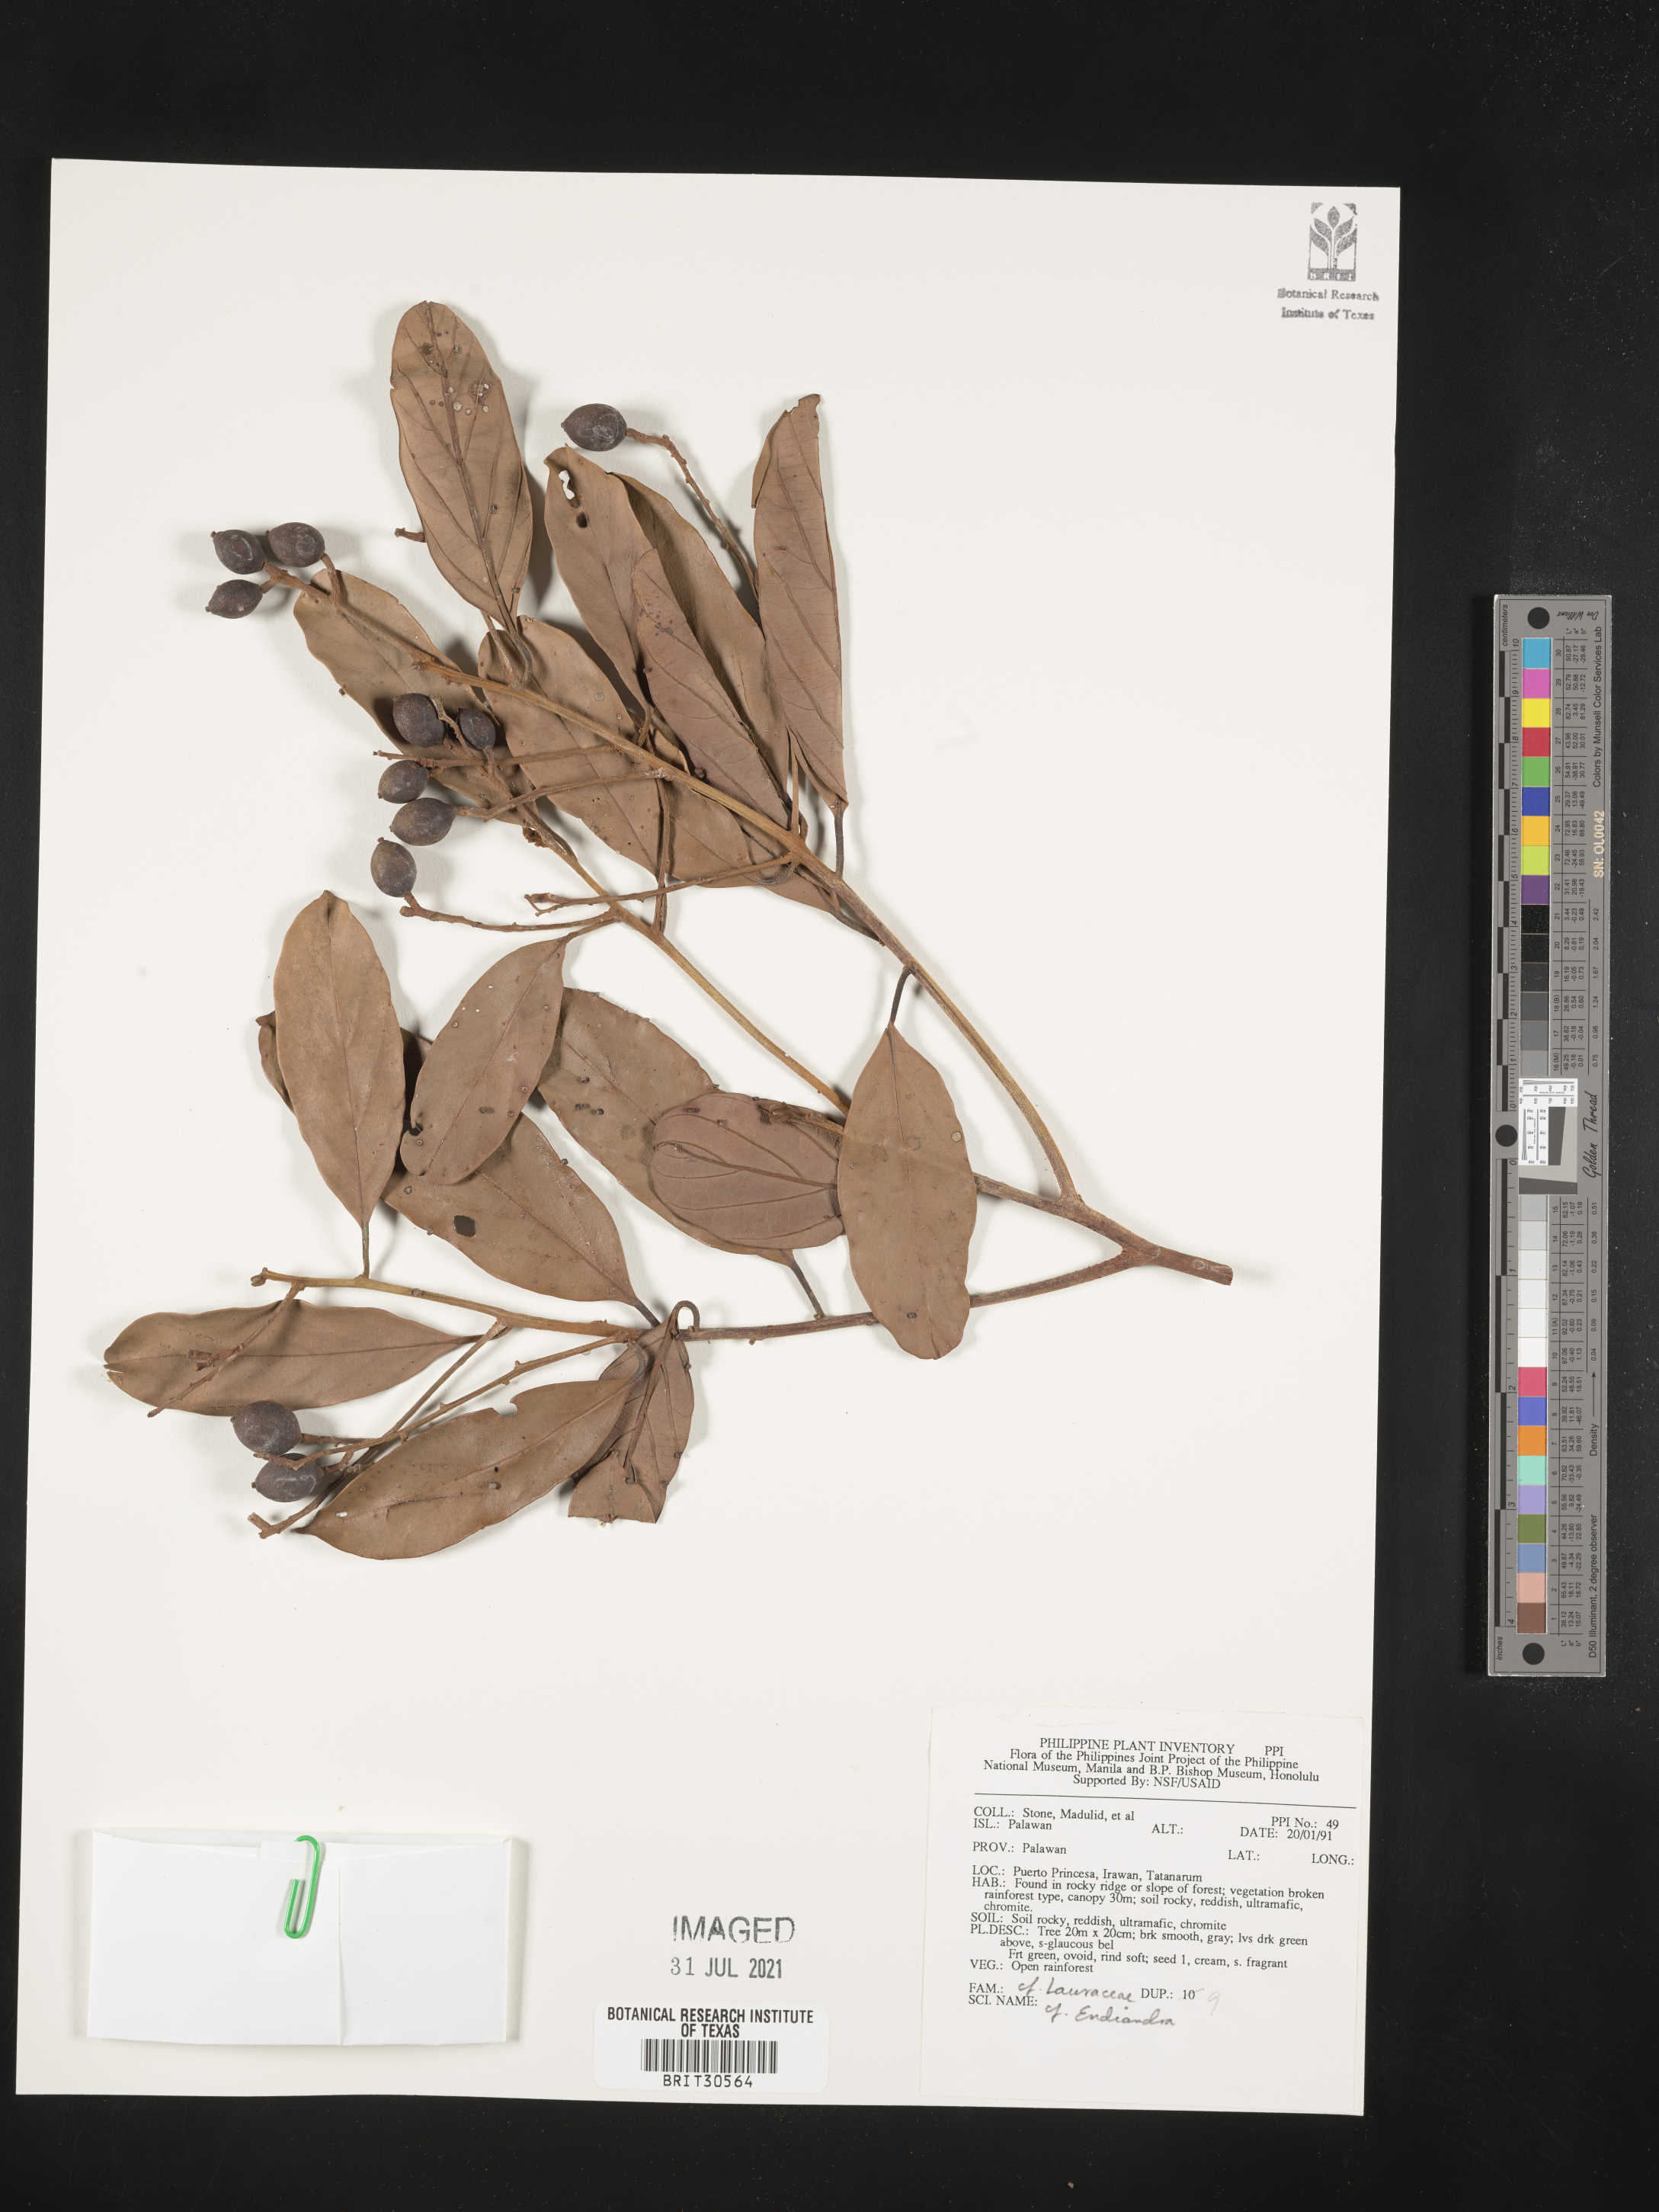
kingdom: Plantae
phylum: Tracheophyta
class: Magnoliopsida
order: Laurales
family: Lauraceae
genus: Endiandra
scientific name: Endiandra
